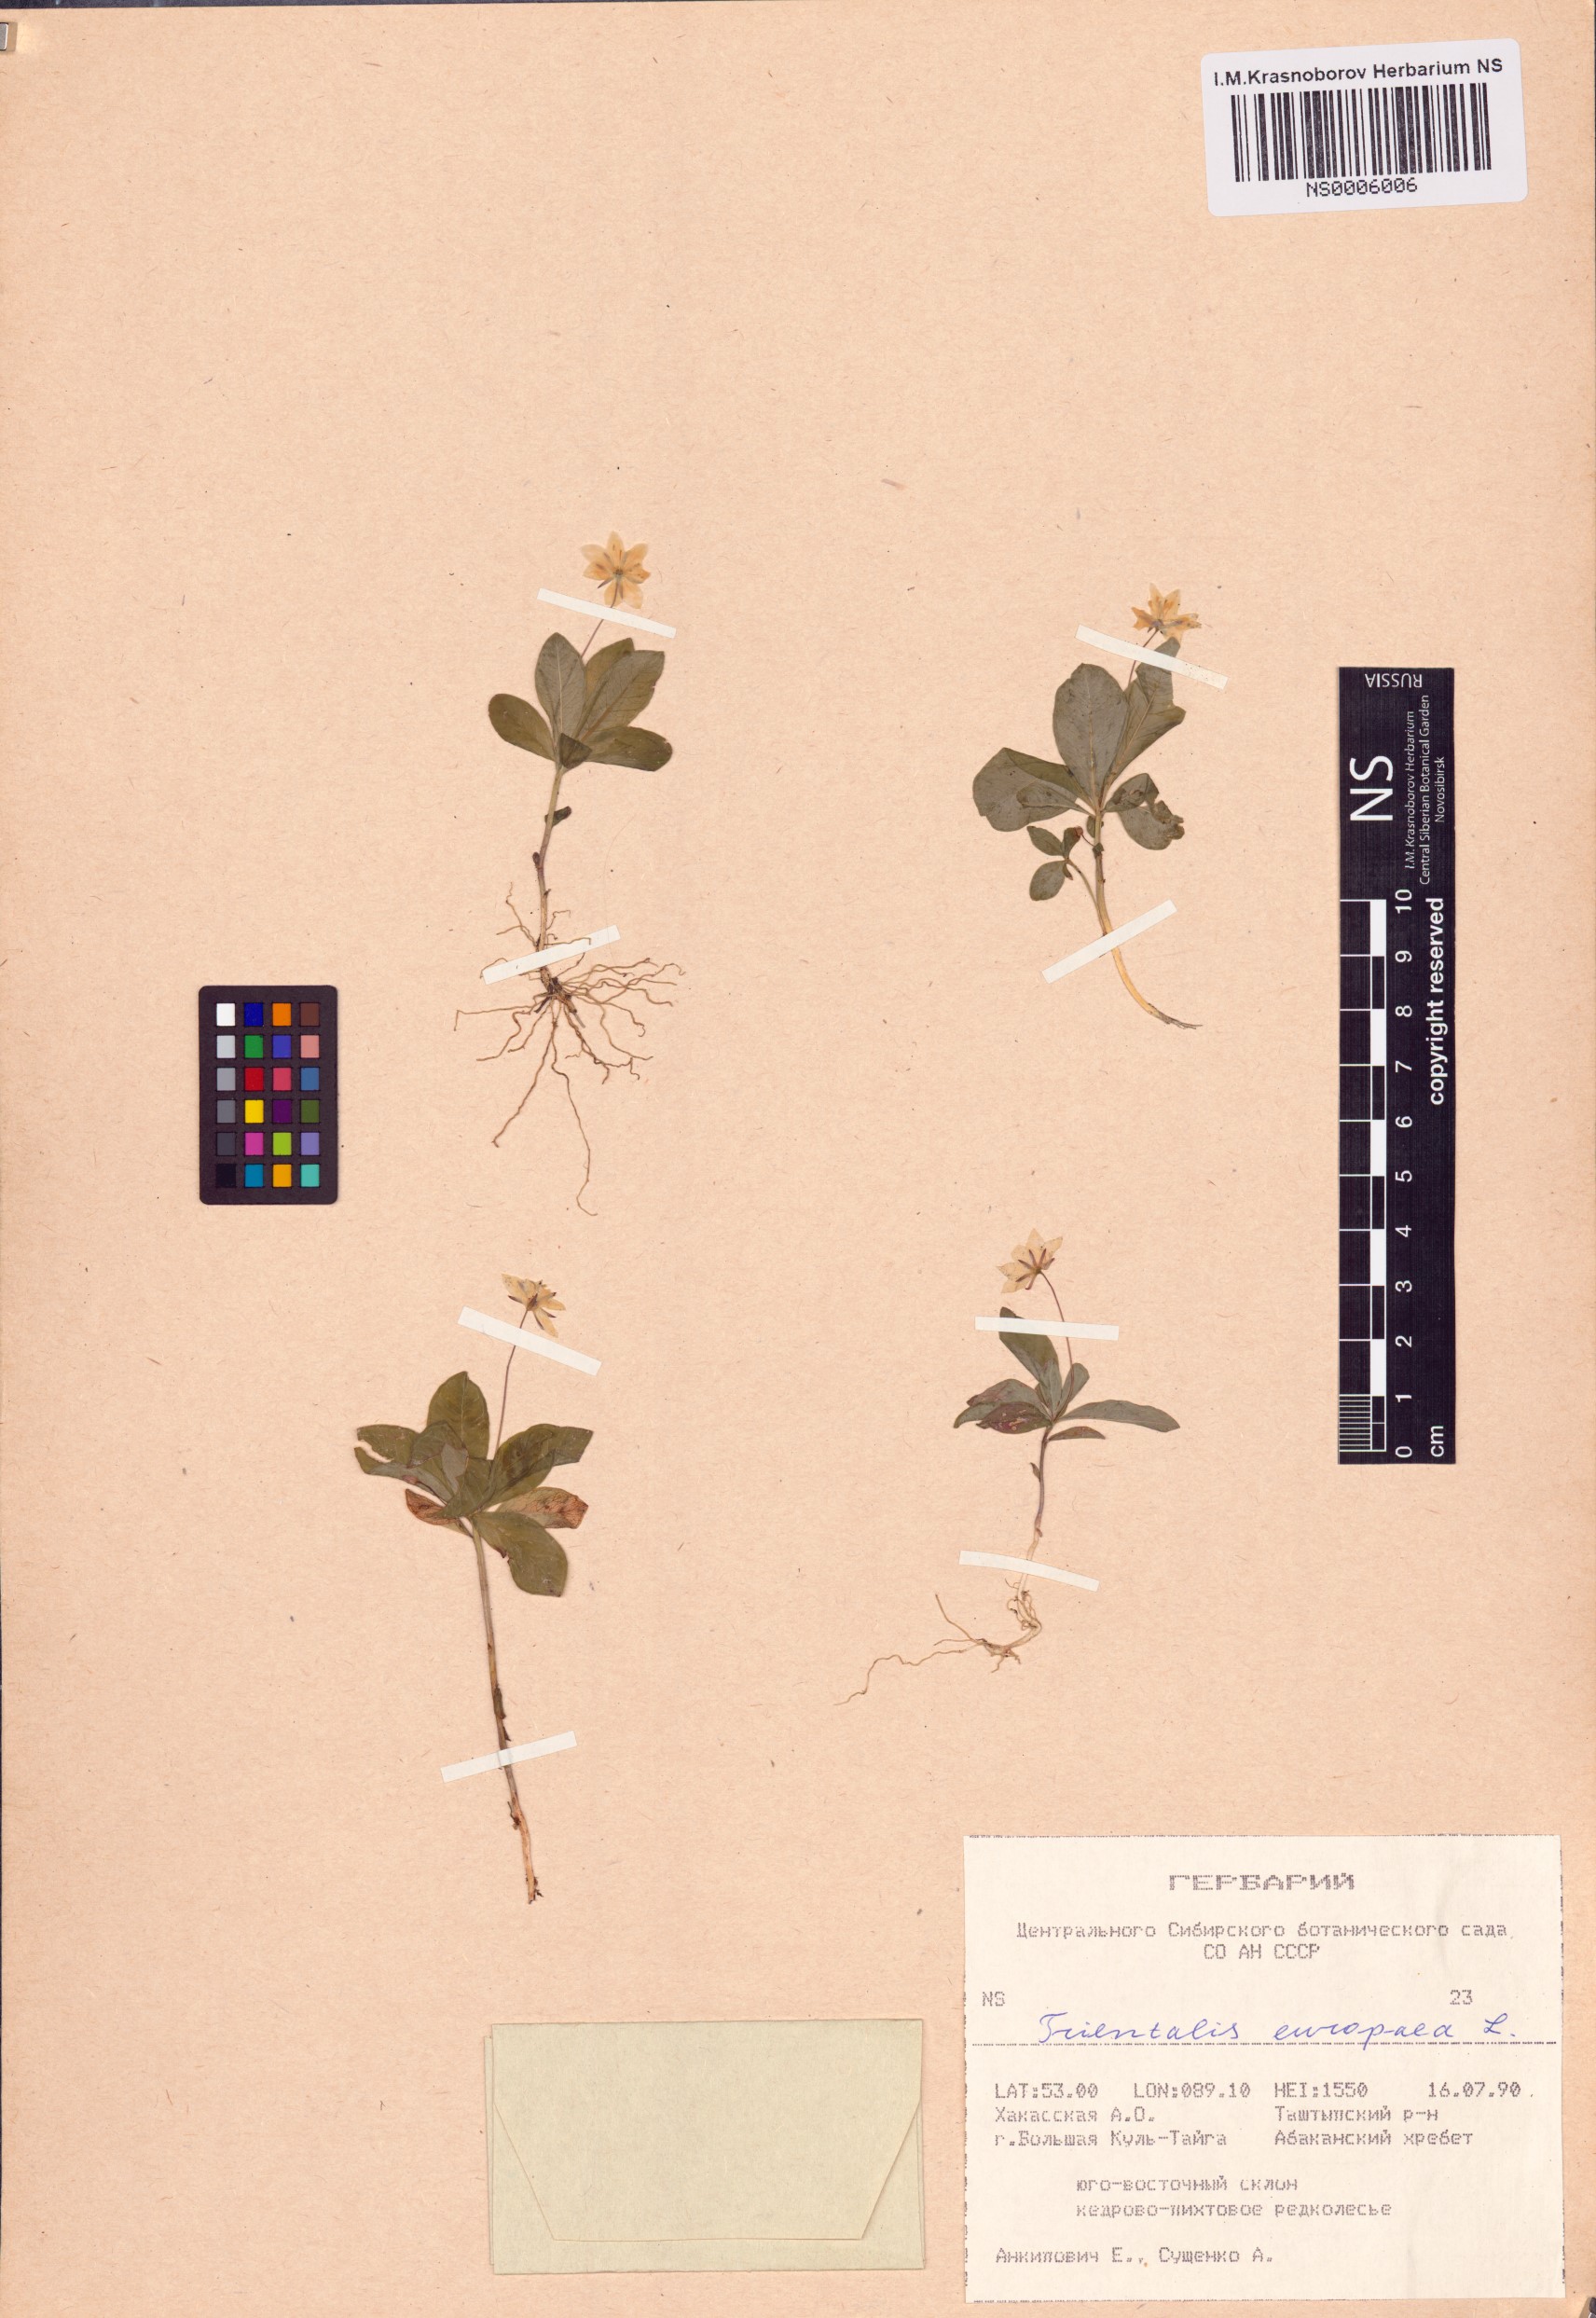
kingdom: Plantae
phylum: Tracheophyta
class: Magnoliopsida
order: Ericales
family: Primulaceae
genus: Lysimachia
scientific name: Lysimachia europaea
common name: Arctic starflower
